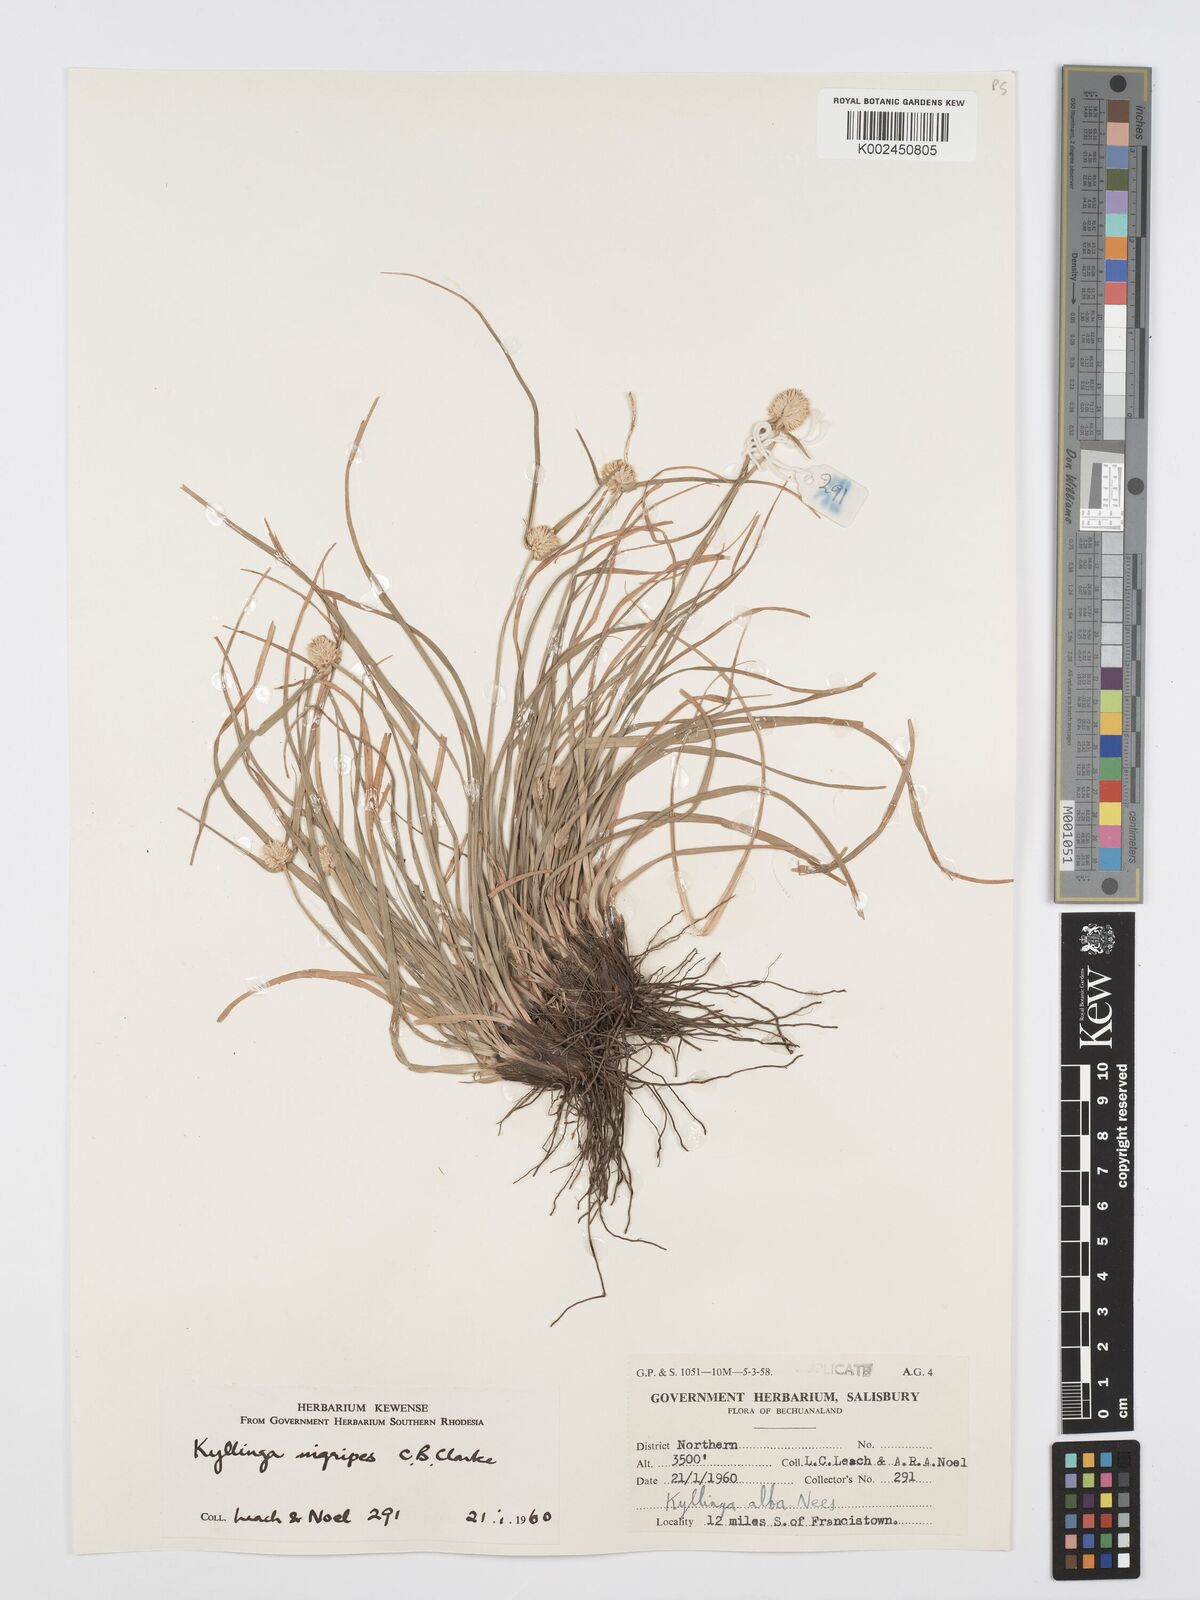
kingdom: Plantae
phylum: Tracheophyta
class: Liliopsida
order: Poales
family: Cyperaceae
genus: Cyperus
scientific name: Cyperus
